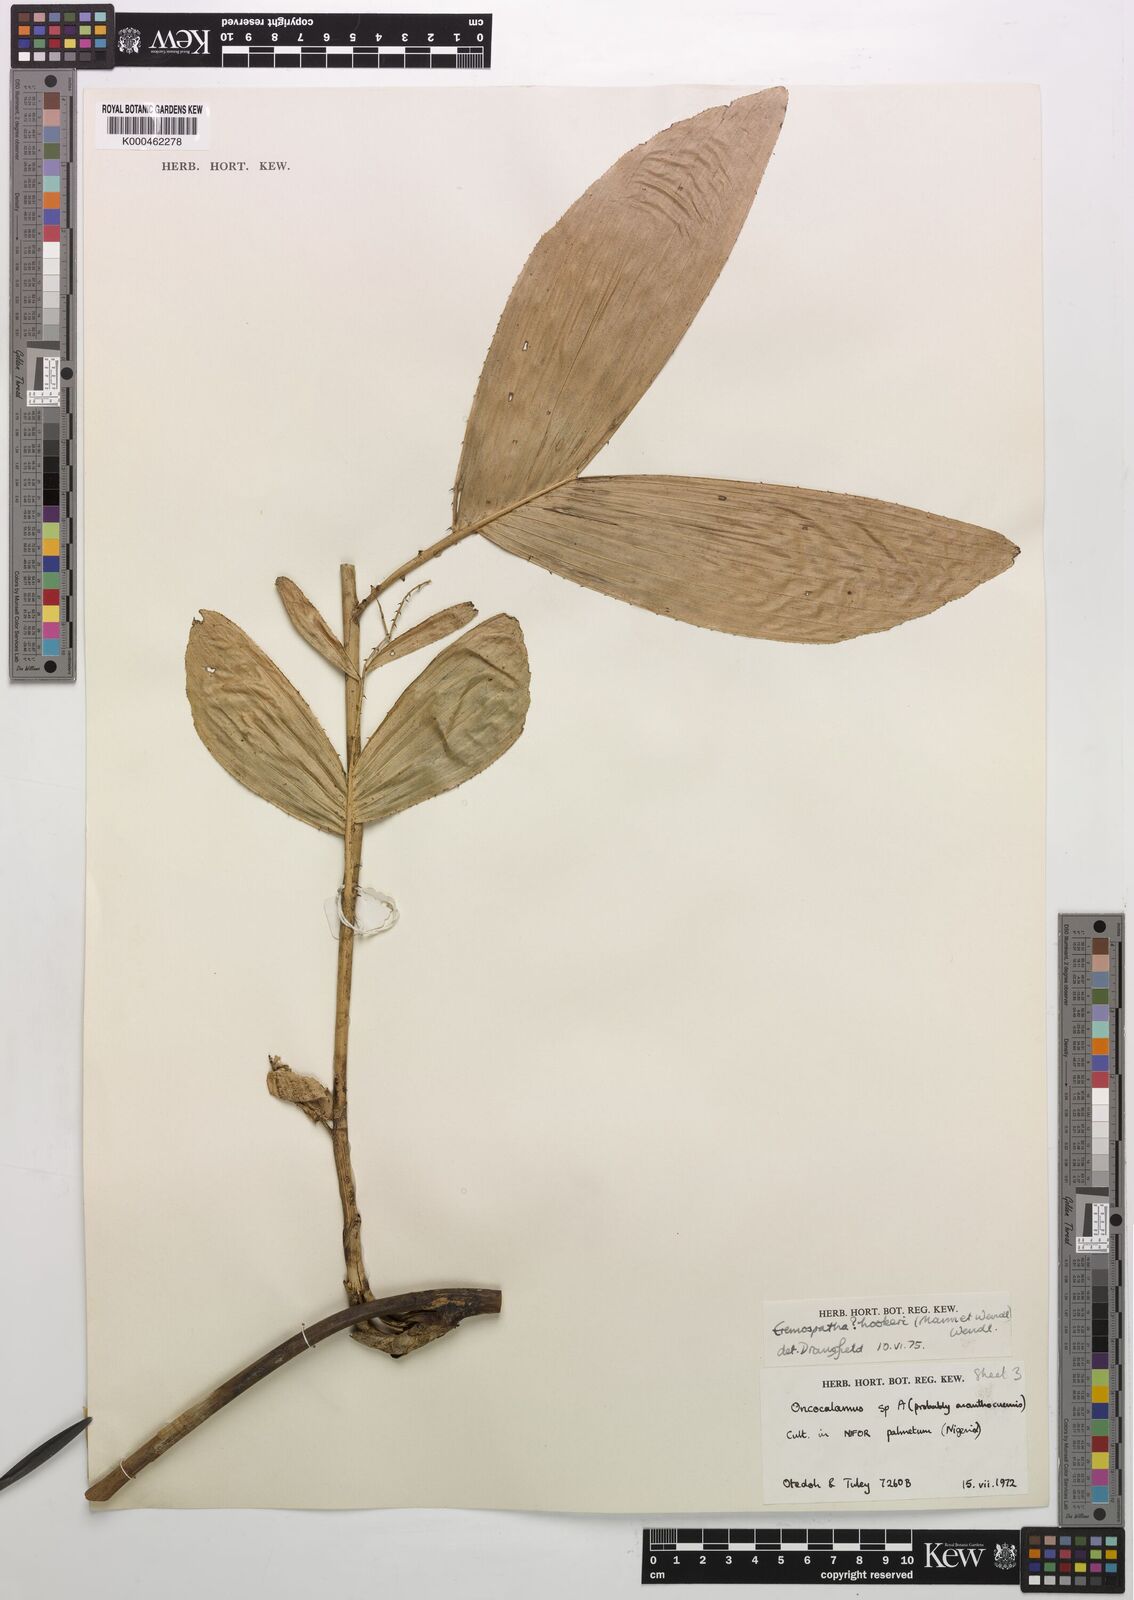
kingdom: Plantae
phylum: Tracheophyta
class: Liliopsida
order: Arecales
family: Arecaceae
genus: Eremospatha
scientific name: Eremospatha hookeri
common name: Rattan
